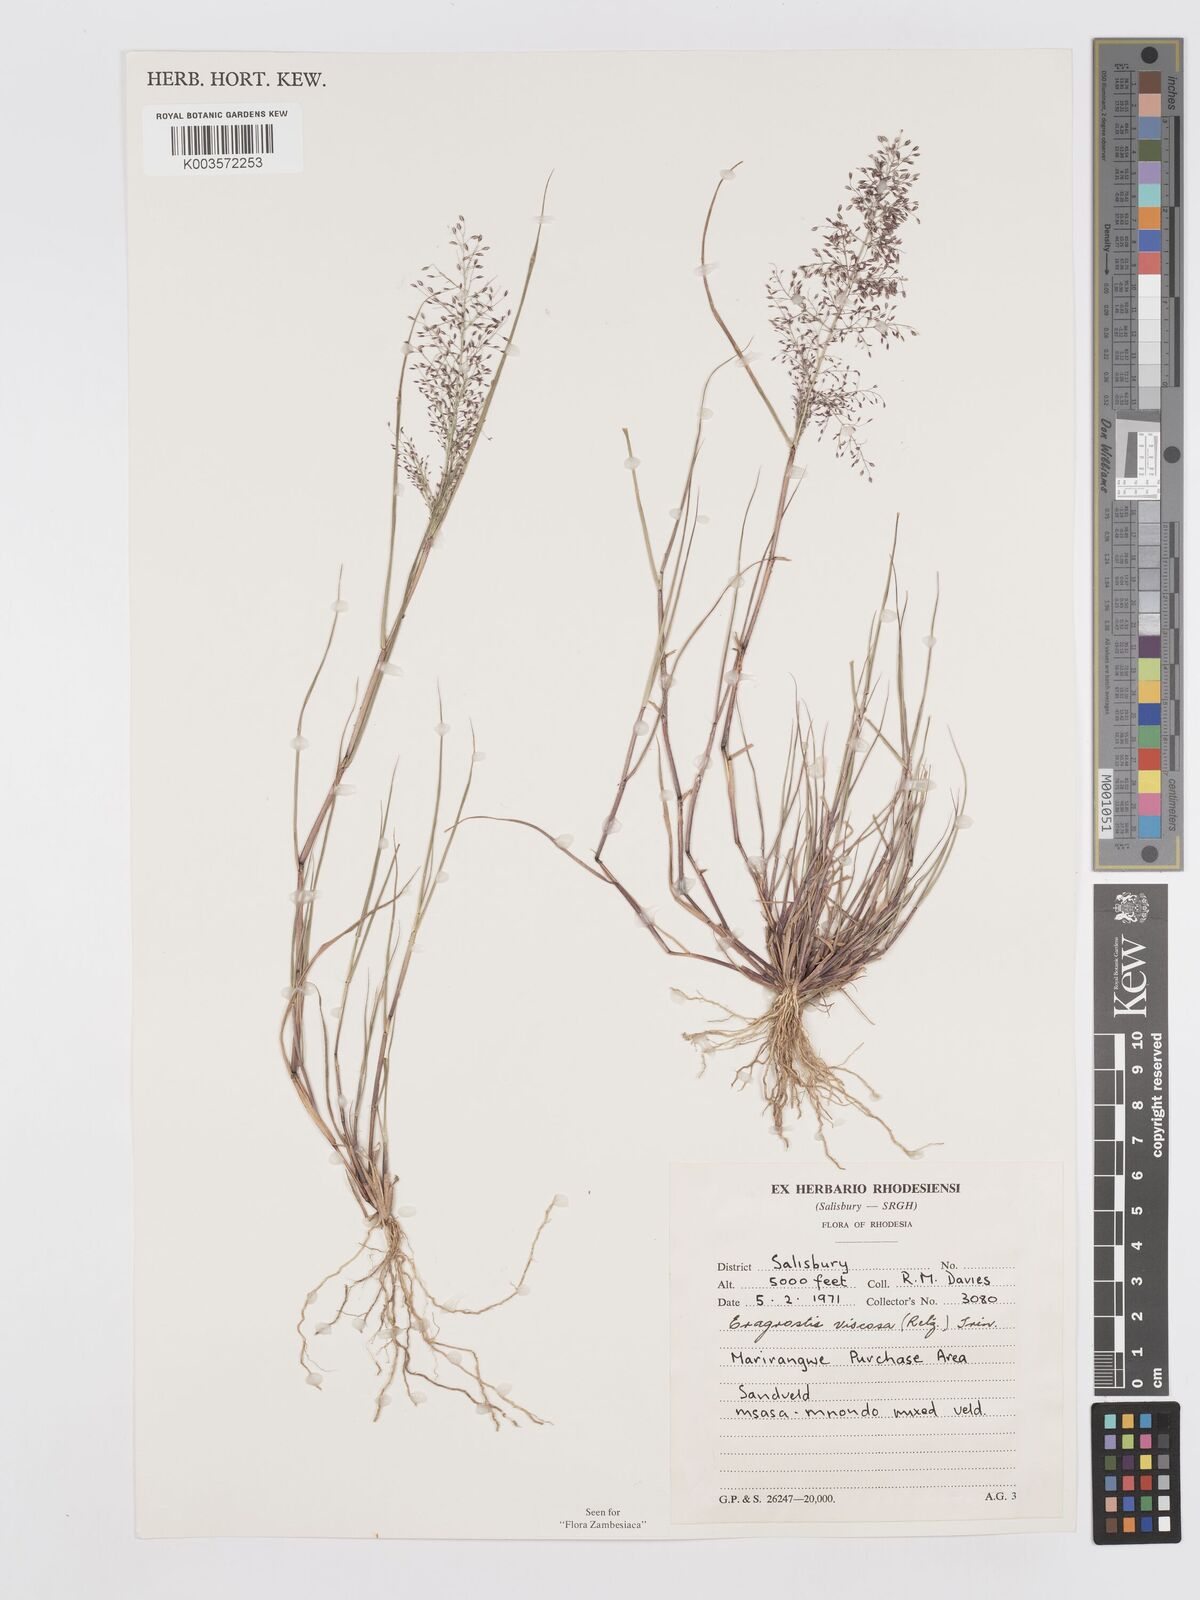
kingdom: Plantae
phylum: Tracheophyta
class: Liliopsida
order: Poales
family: Poaceae
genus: Eragrostis
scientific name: Eragrostis
